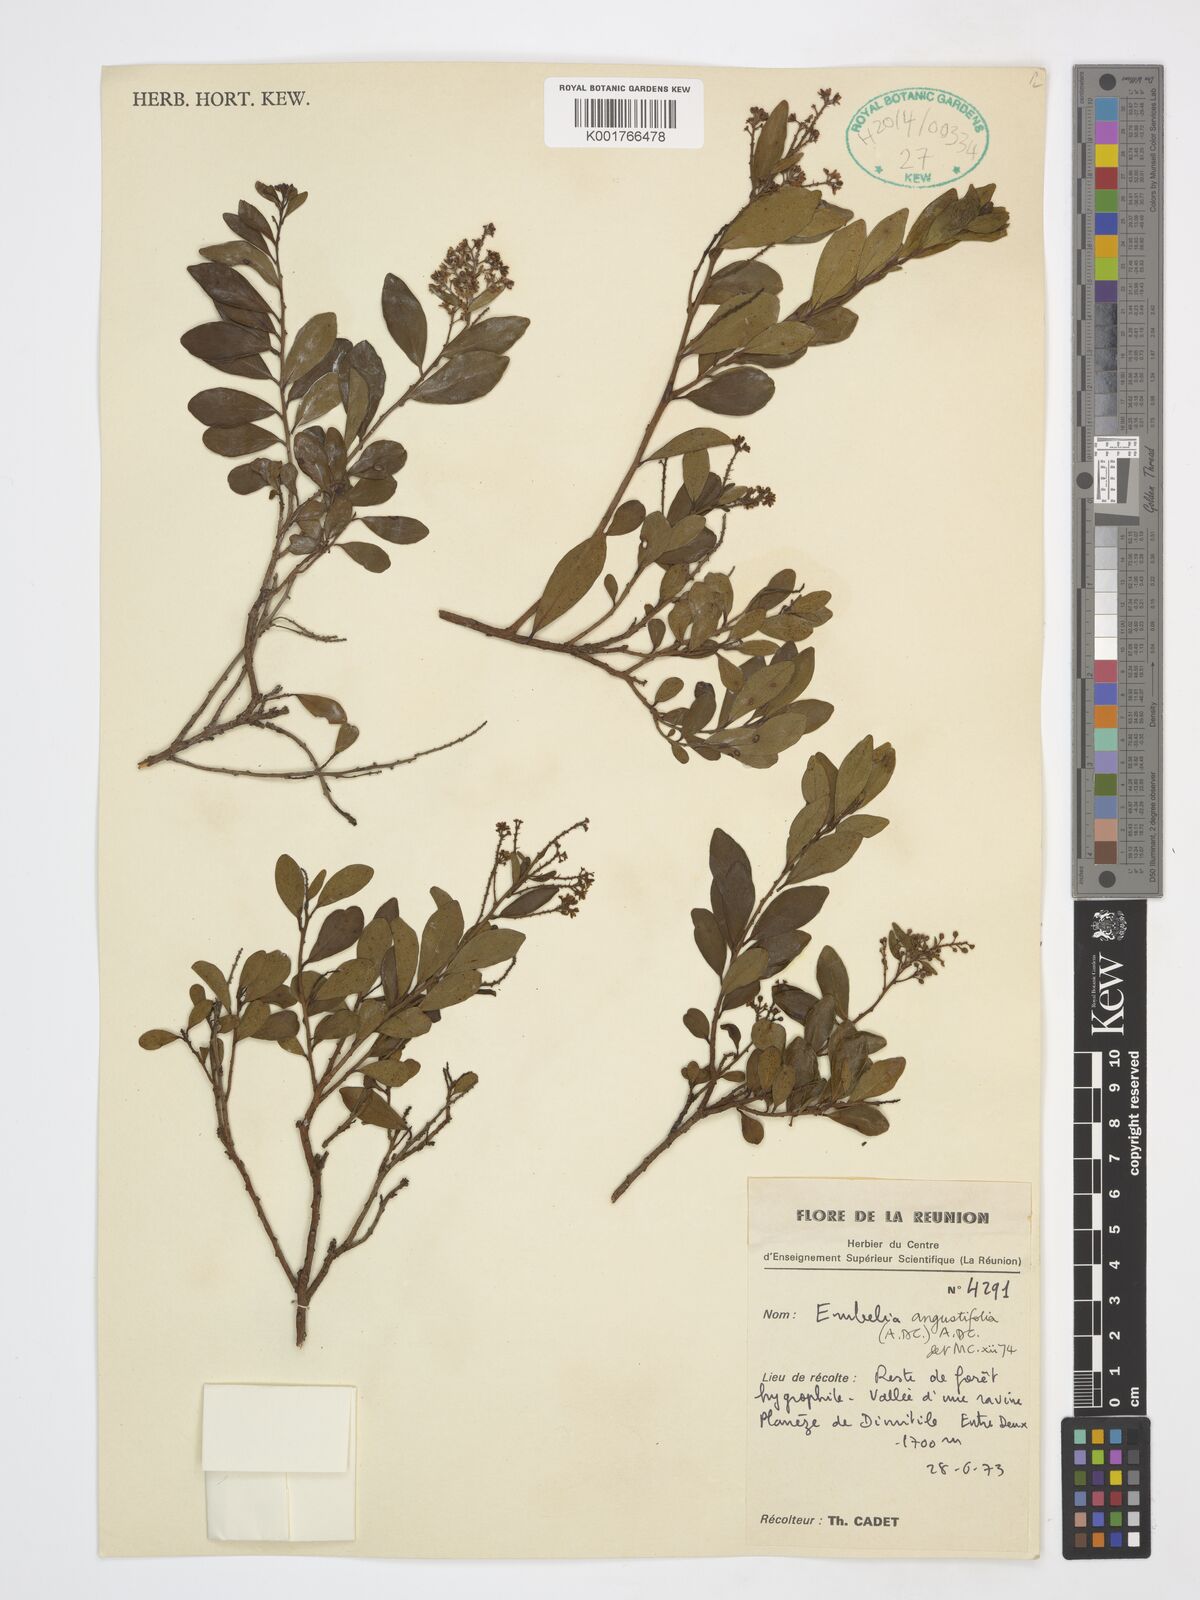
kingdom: Plantae
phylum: Tracheophyta
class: Magnoliopsida
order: Ericales
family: Primulaceae
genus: Embelia
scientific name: Embelia angustifolia
